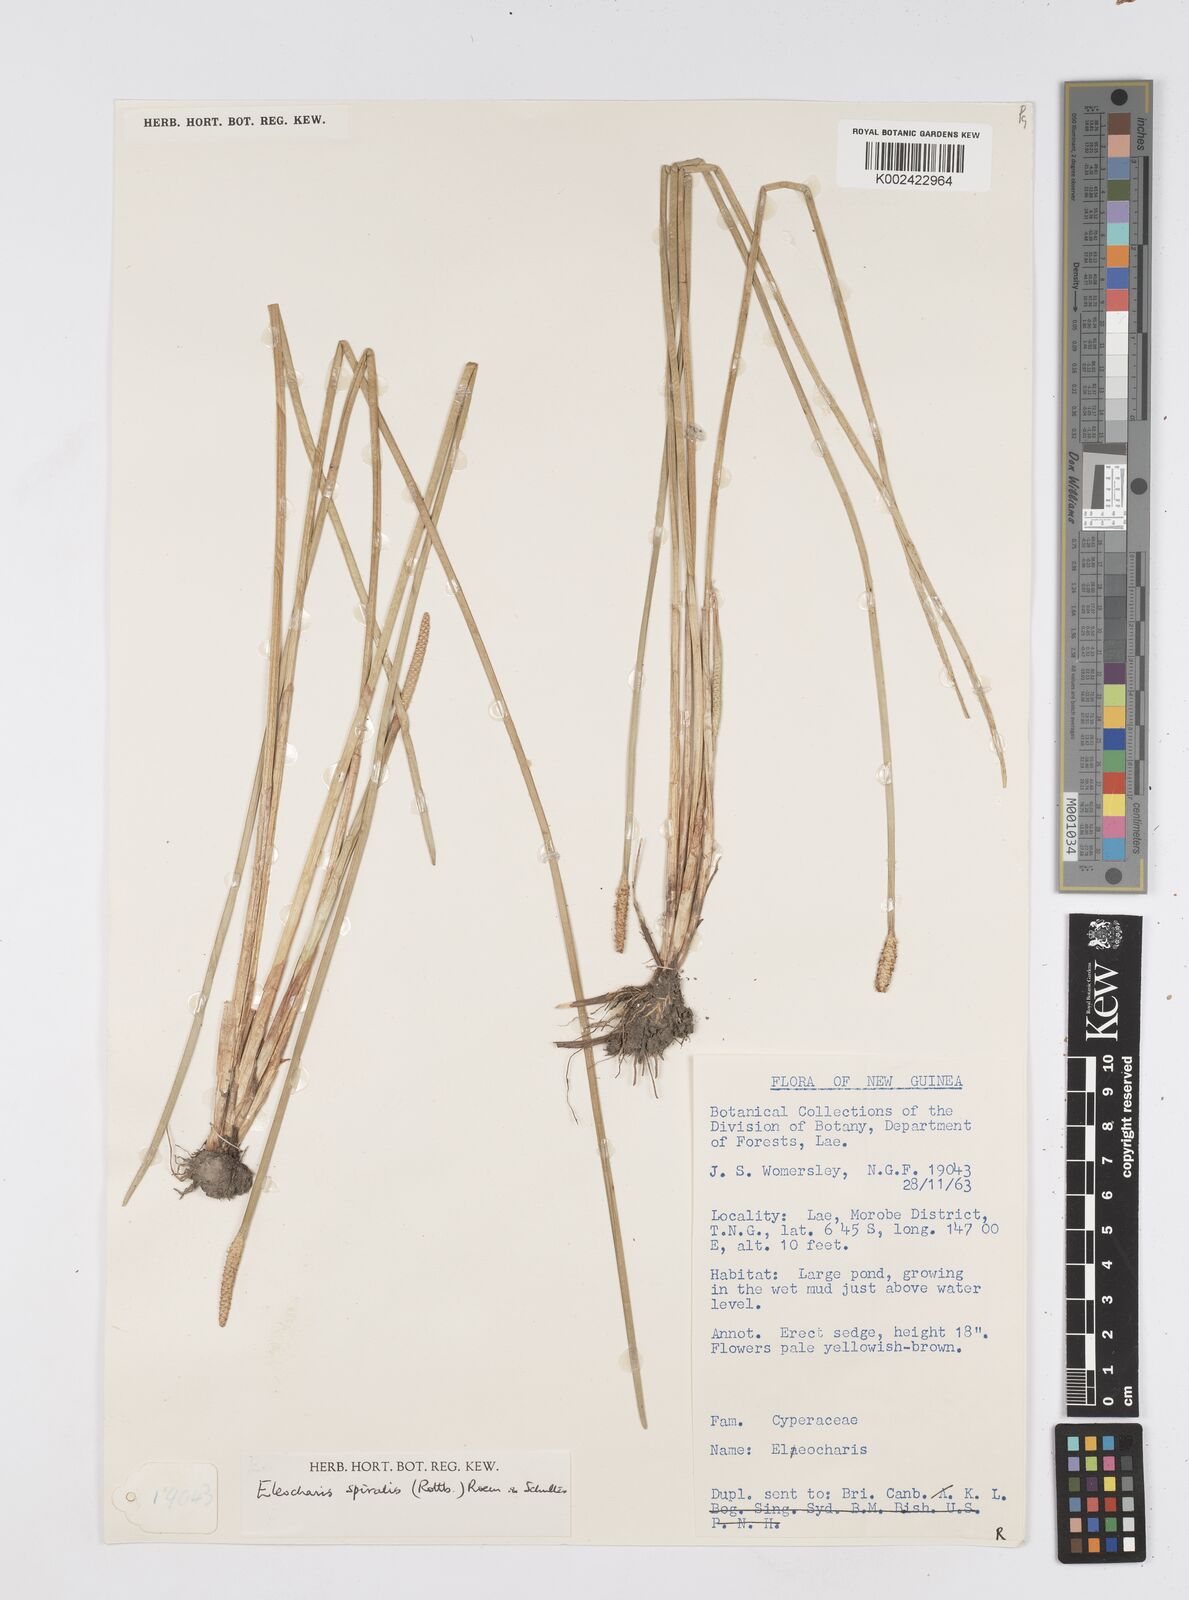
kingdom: Plantae
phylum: Tracheophyta
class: Liliopsida
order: Poales
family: Cyperaceae
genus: Eleocharis
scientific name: Eleocharis spiralis
